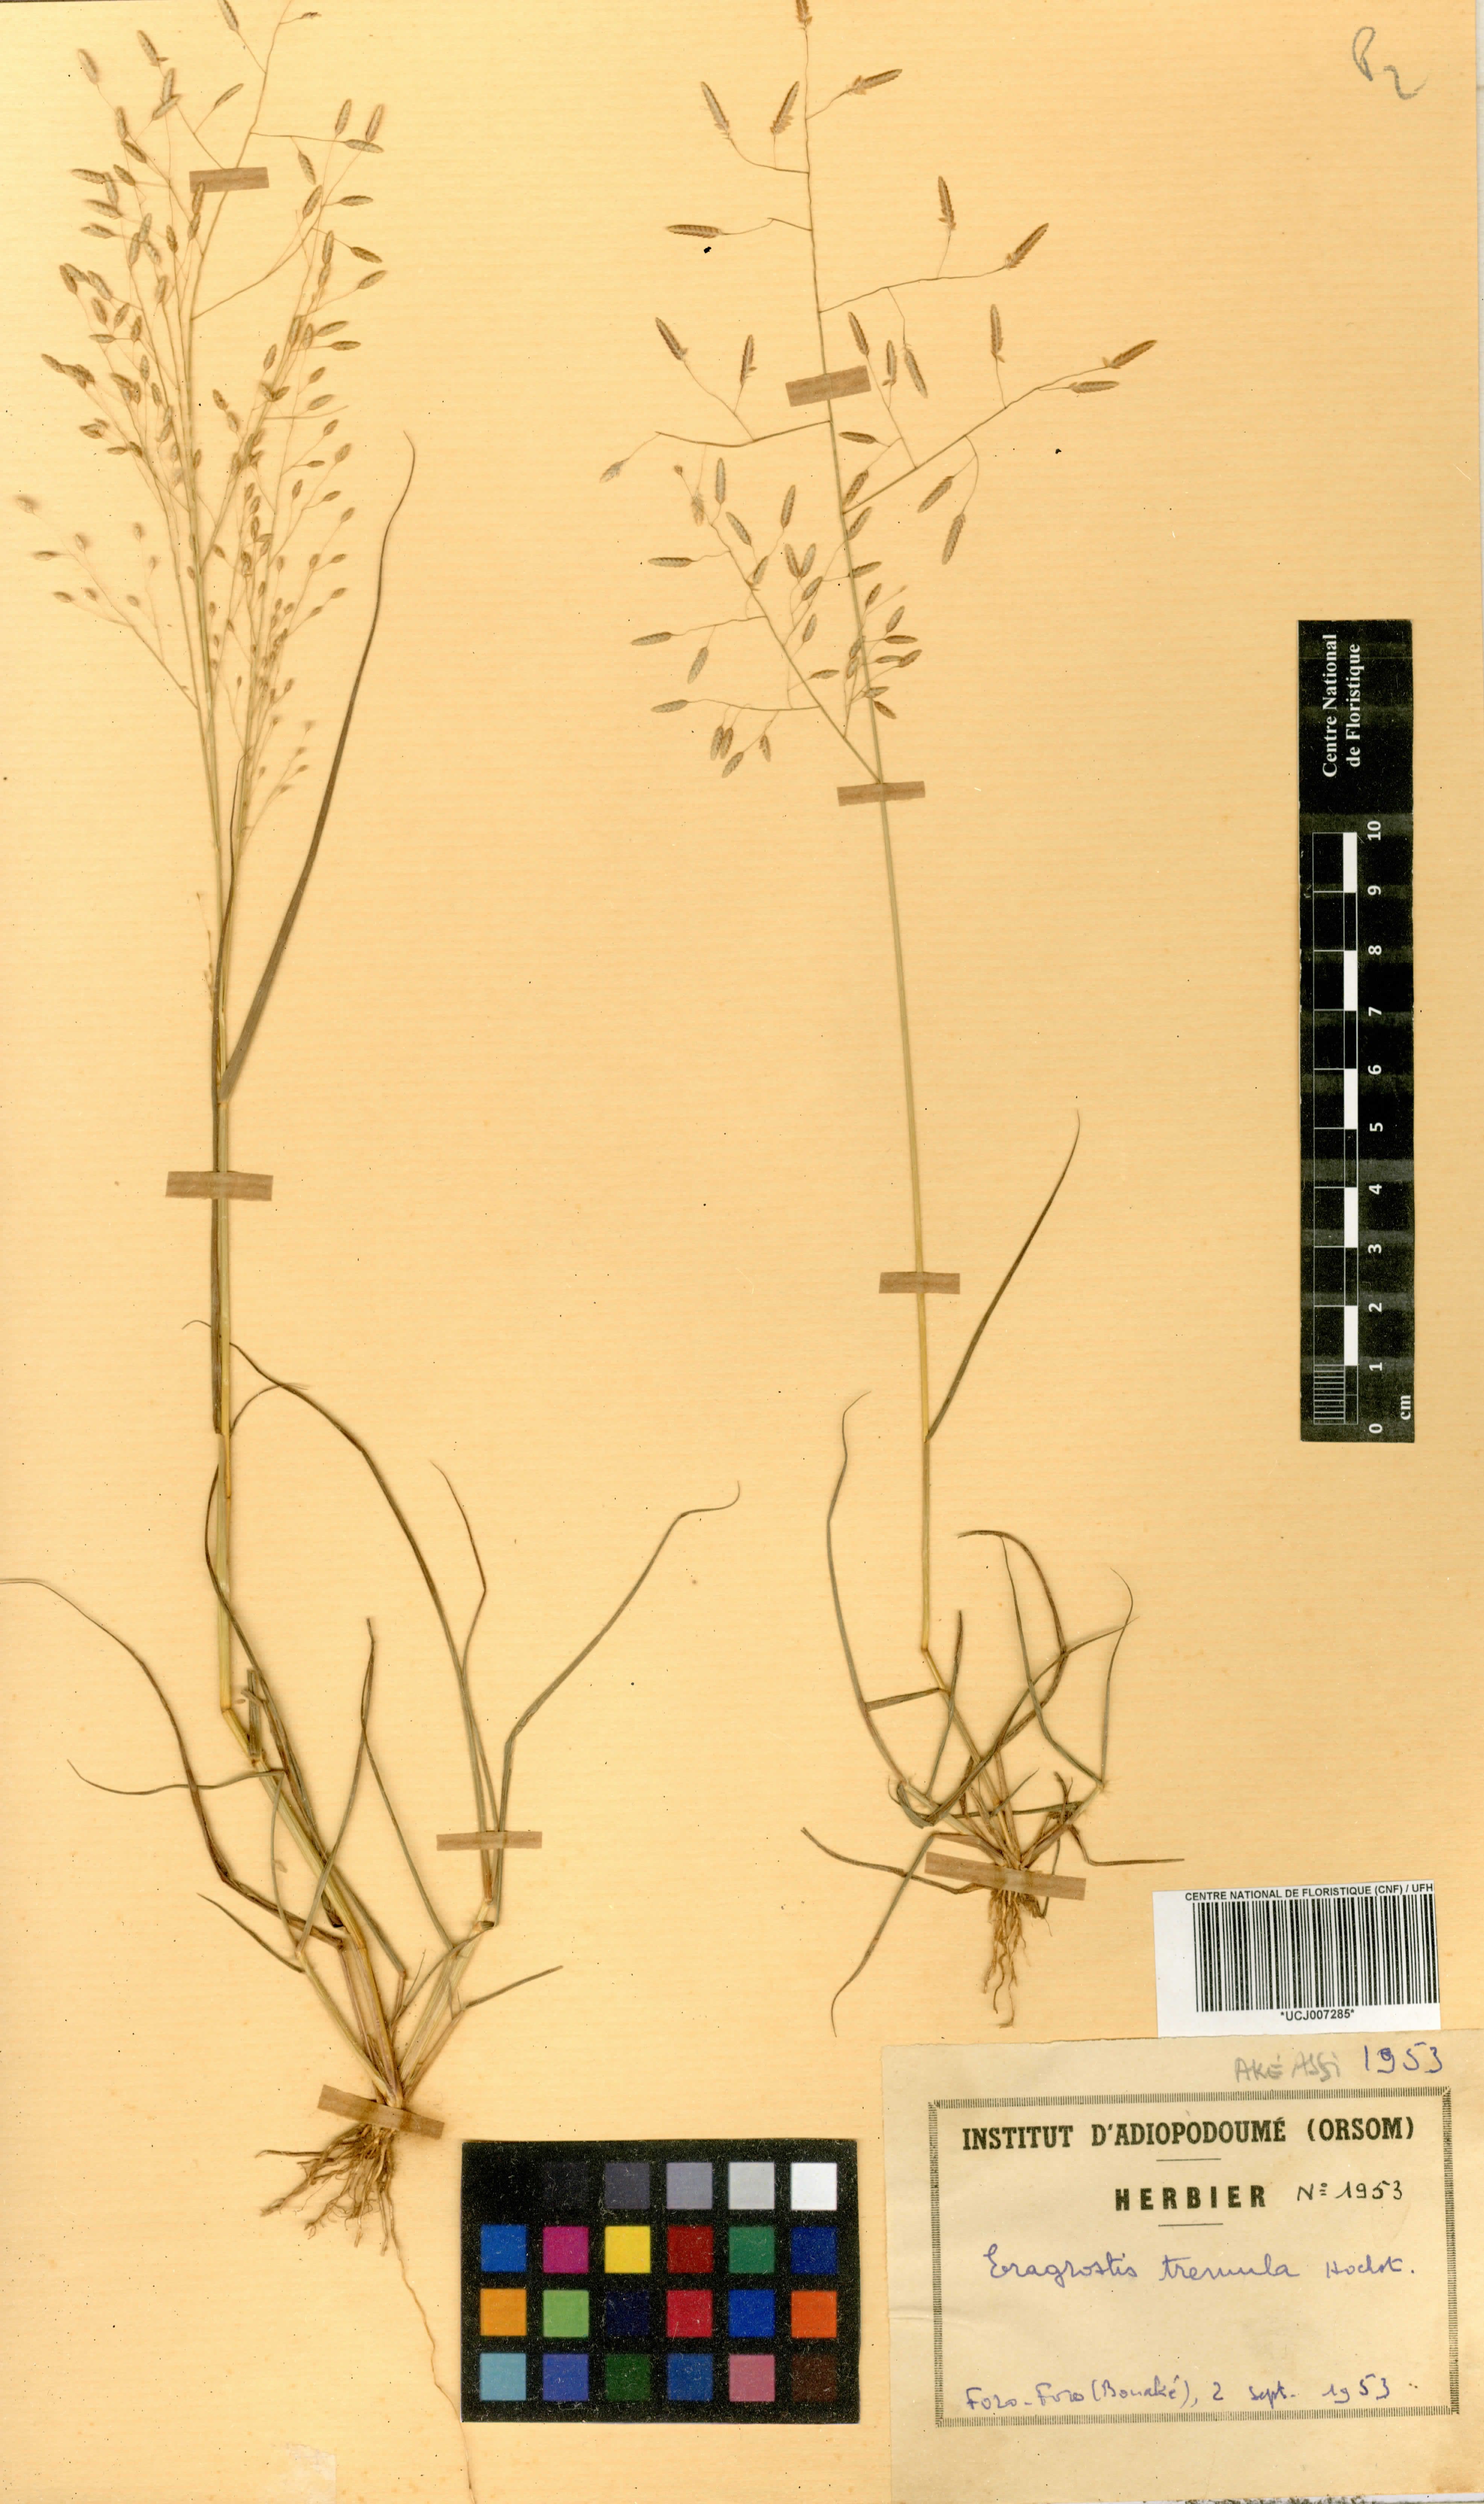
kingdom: Plantae
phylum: Tracheophyta
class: Liliopsida
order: Poales
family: Poaceae
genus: Eragrostis
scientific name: Eragrostis tremula
